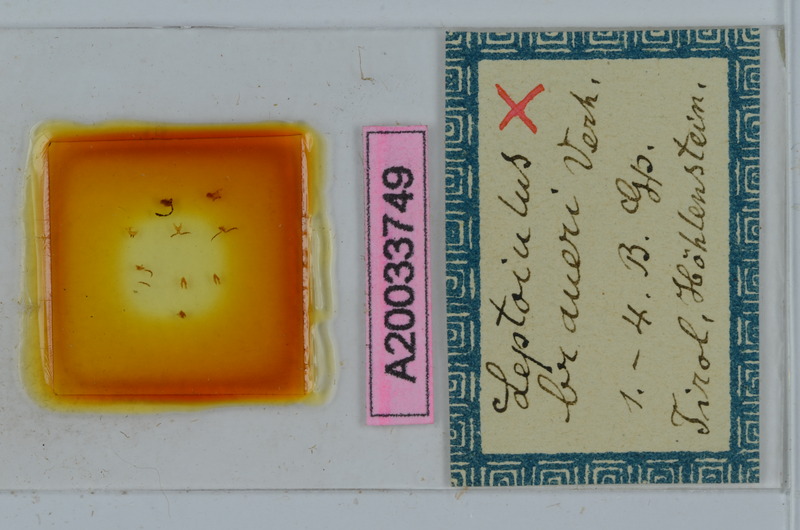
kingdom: Animalia
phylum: Arthropoda
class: Diplopoda
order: Julida
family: Julidae
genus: Leptoiulus
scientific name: Leptoiulus braueri
